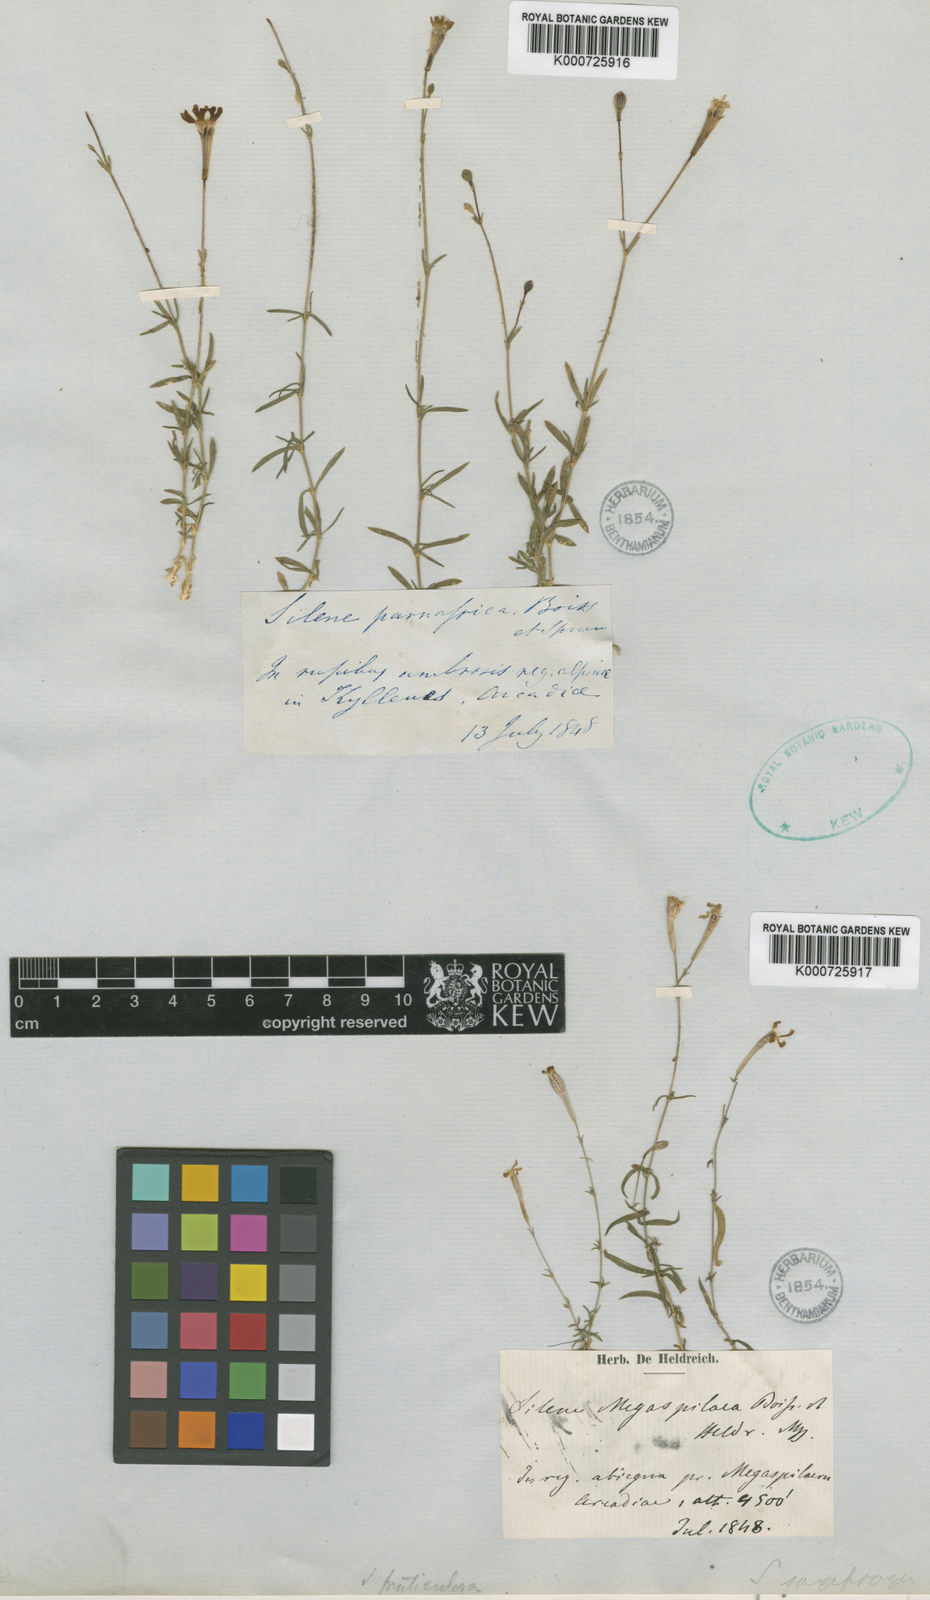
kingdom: Plantae
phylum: Tracheophyta
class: Magnoliopsida
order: Caryophyllales
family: Caryophyllaceae
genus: Silene
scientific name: Silene
